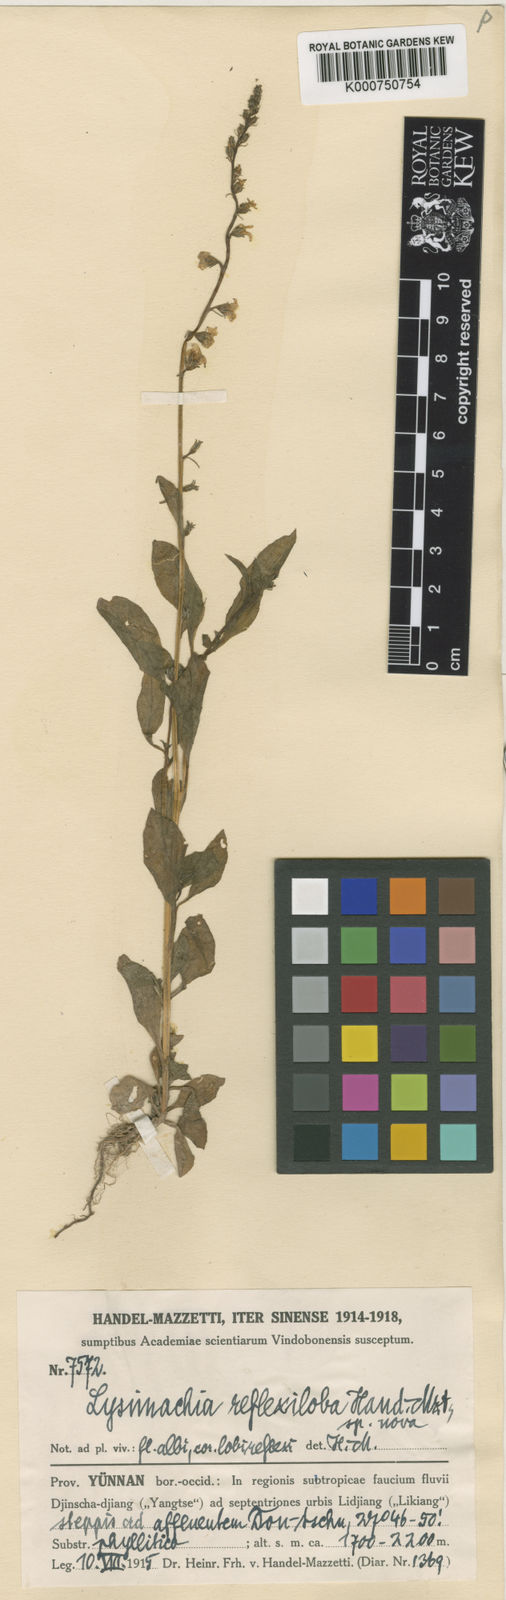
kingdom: Plantae
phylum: Tracheophyta
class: Magnoliopsida
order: Ericales
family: Primulaceae
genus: Lysimachia
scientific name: Lysimachia reflexiloba
